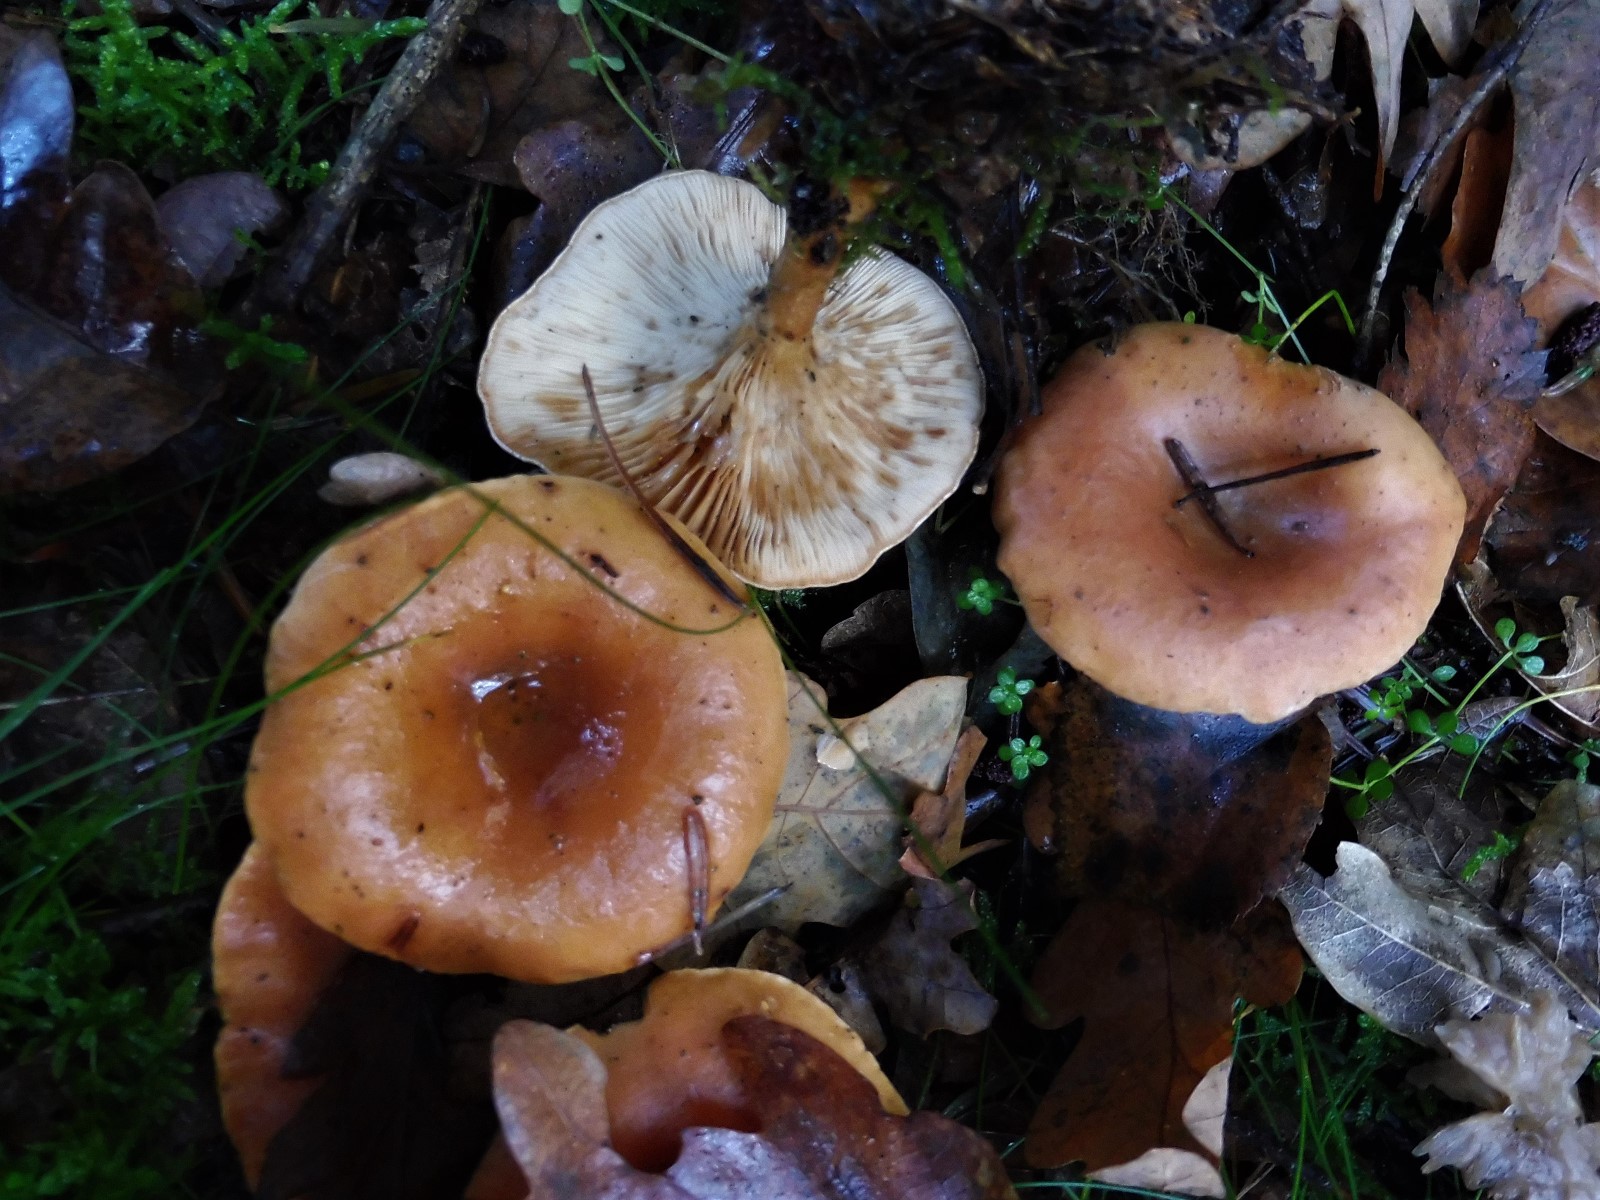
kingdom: Fungi
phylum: Basidiomycota
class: Agaricomycetes
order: Agaricales
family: Tricholomataceae
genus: Paralepista
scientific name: Paralepista flaccida
